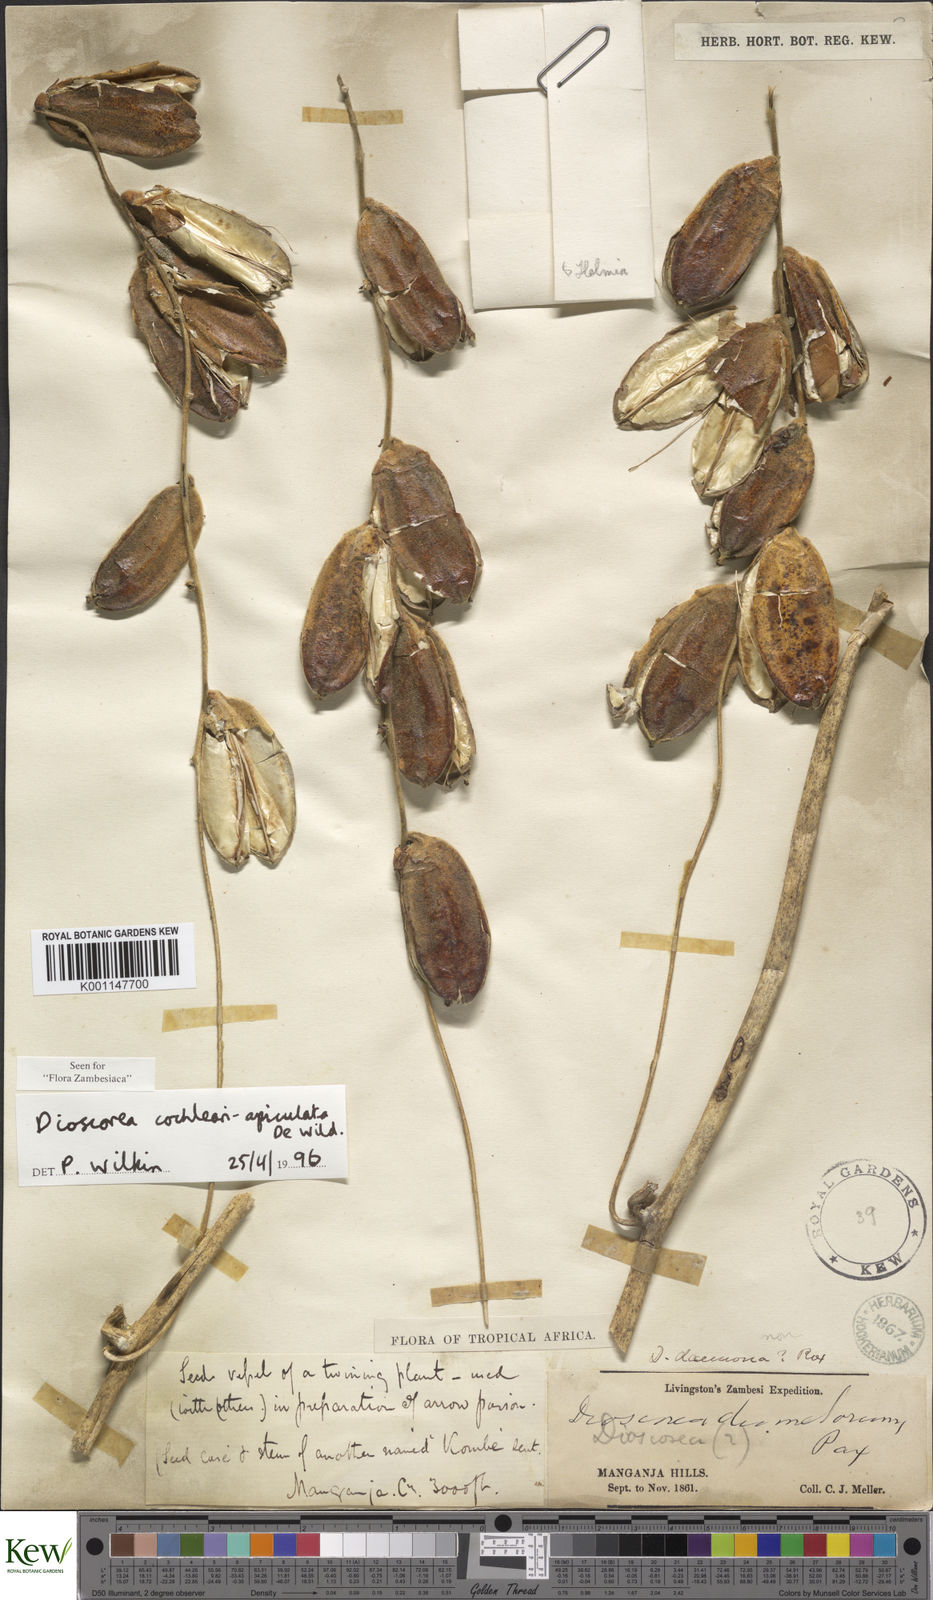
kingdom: Plantae
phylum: Tracheophyta
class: Liliopsida
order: Dioscoreales
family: Dioscoreaceae
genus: Dioscorea
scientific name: Dioscorea cochleariapiculata
